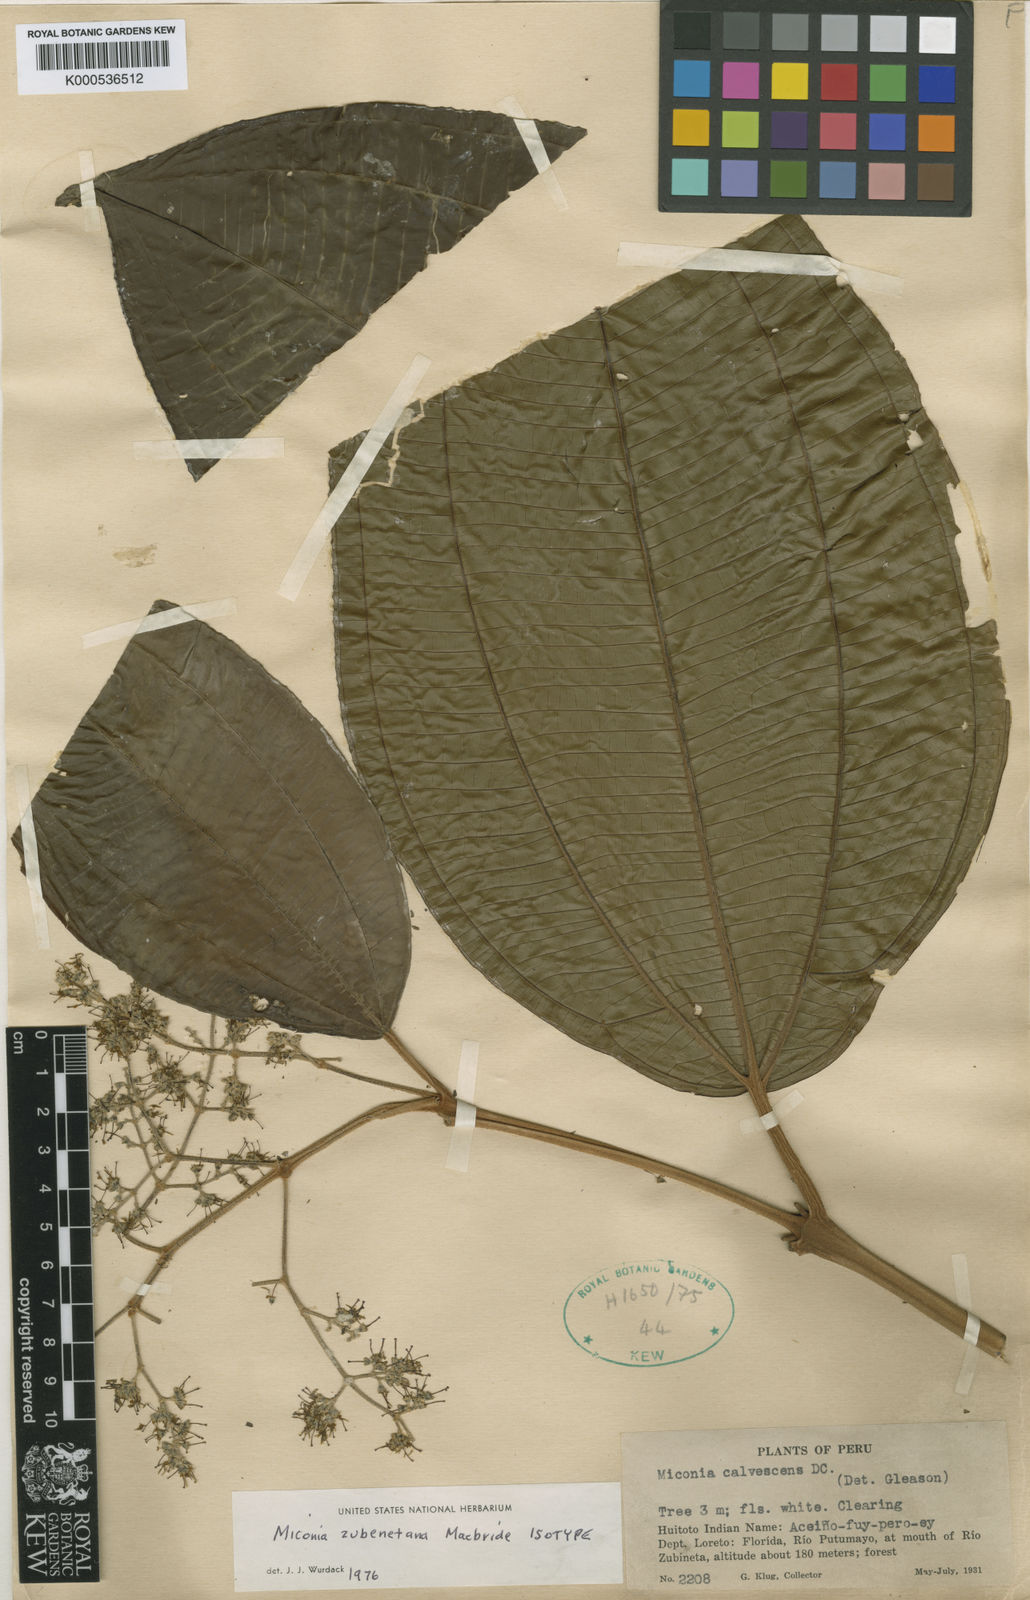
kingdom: Plantae
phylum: Tracheophyta
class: Magnoliopsida
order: Myrtales
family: Melastomataceae
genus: Miconia
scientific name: Miconia zubenetana
